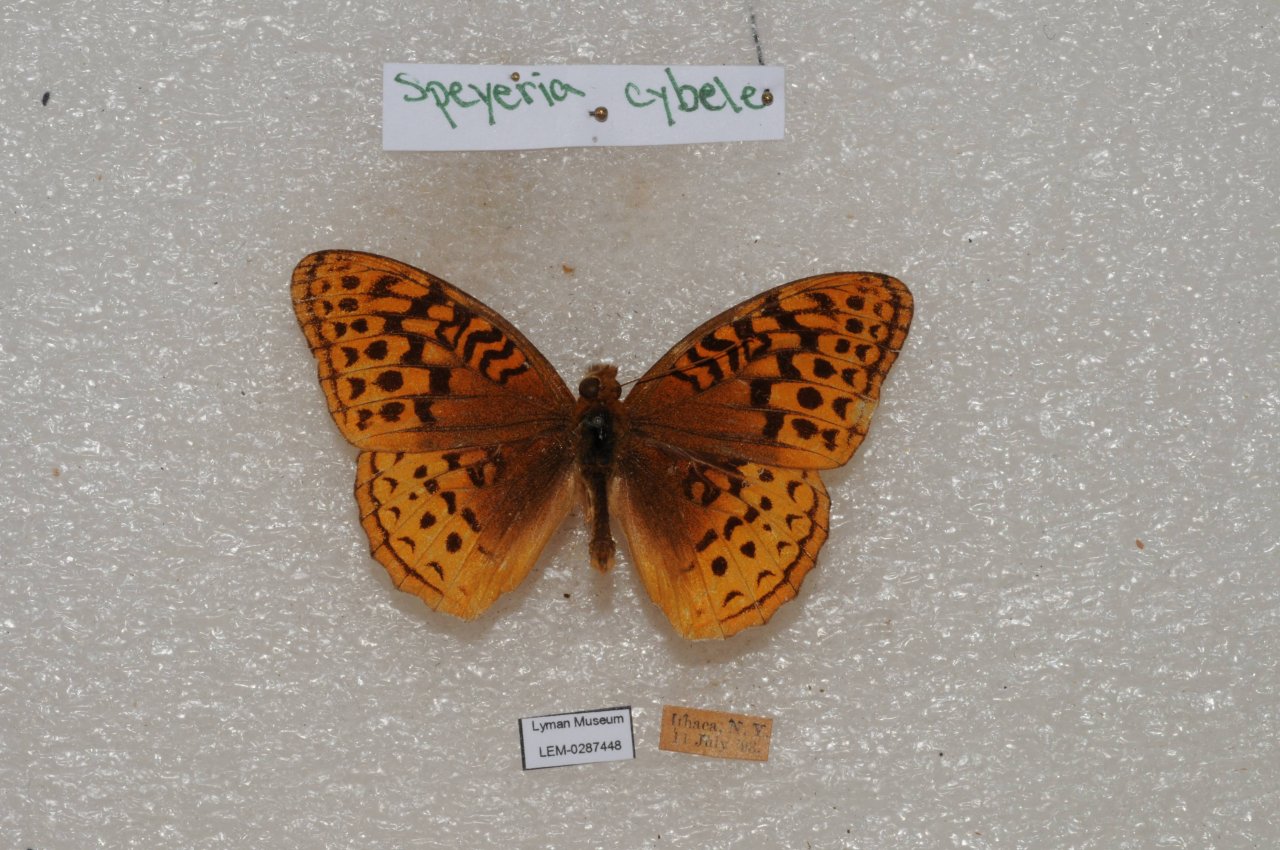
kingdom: Animalia
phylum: Arthropoda
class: Insecta
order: Lepidoptera
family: Nymphalidae
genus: Speyeria
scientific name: Speyeria cybele
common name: Great Spangled Fritillary
